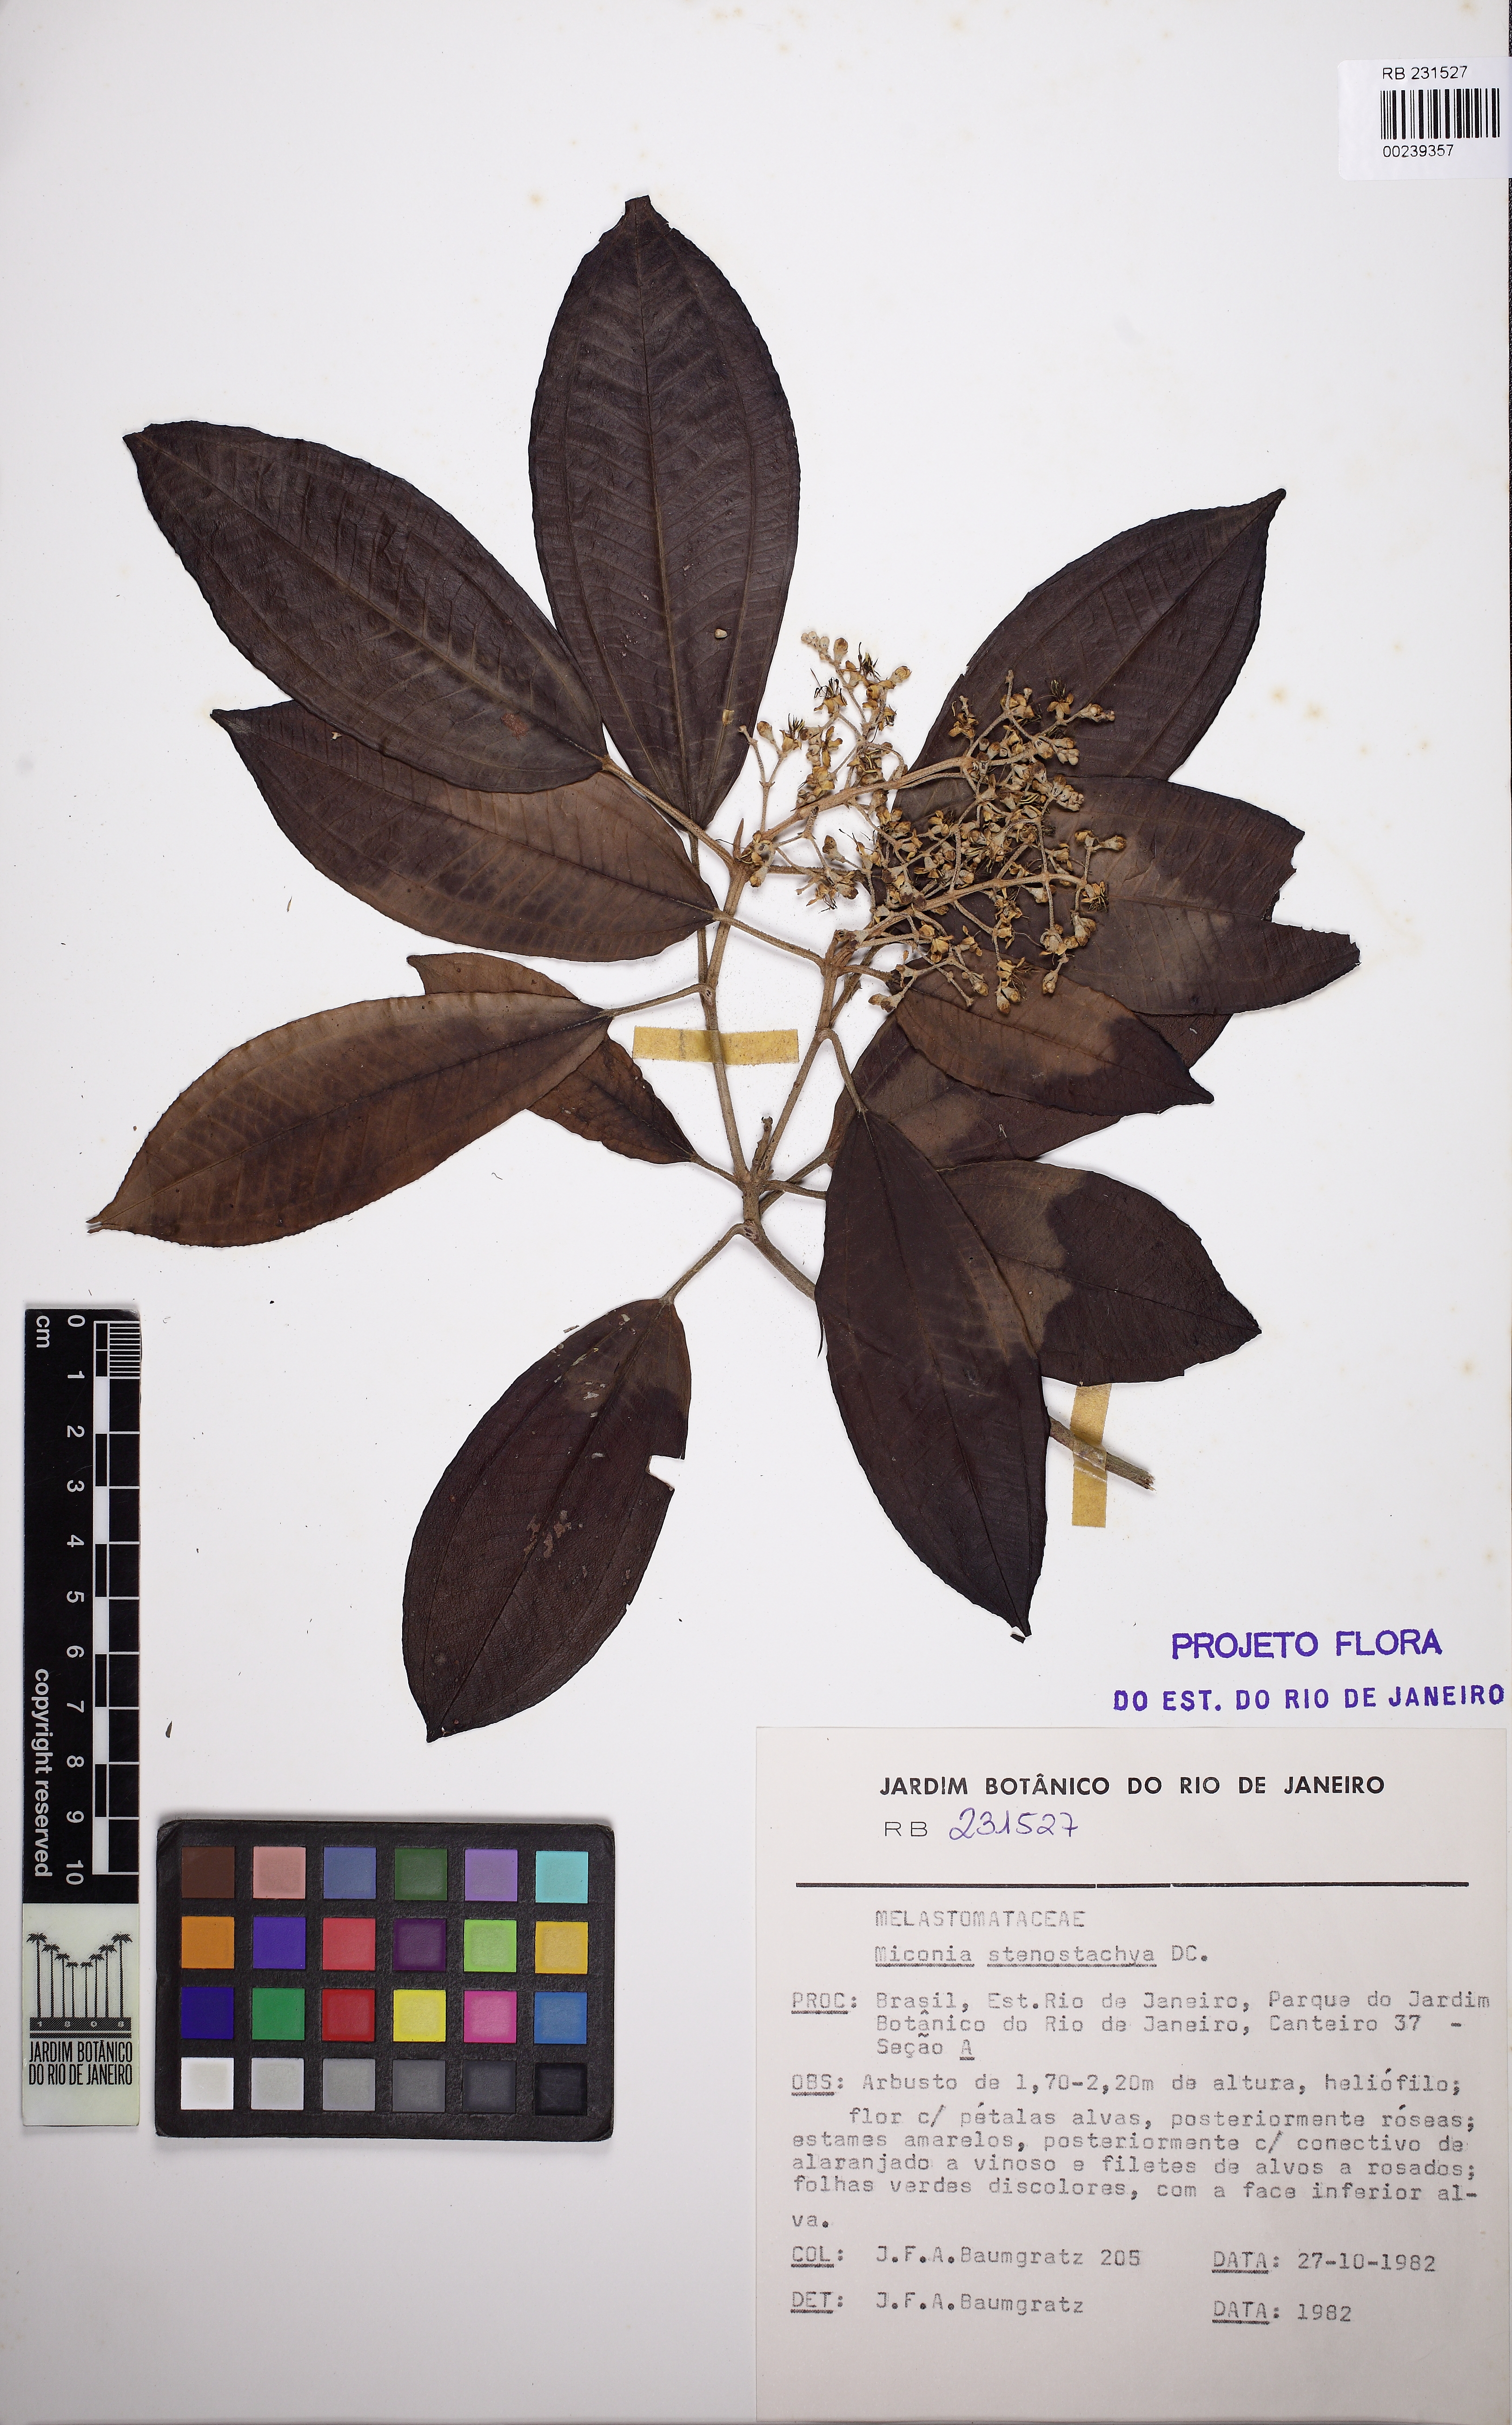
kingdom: Plantae
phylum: Tracheophyta
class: Magnoliopsida
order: Myrtales
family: Melastomataceae
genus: Miconia
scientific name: Miconia stenostachya
